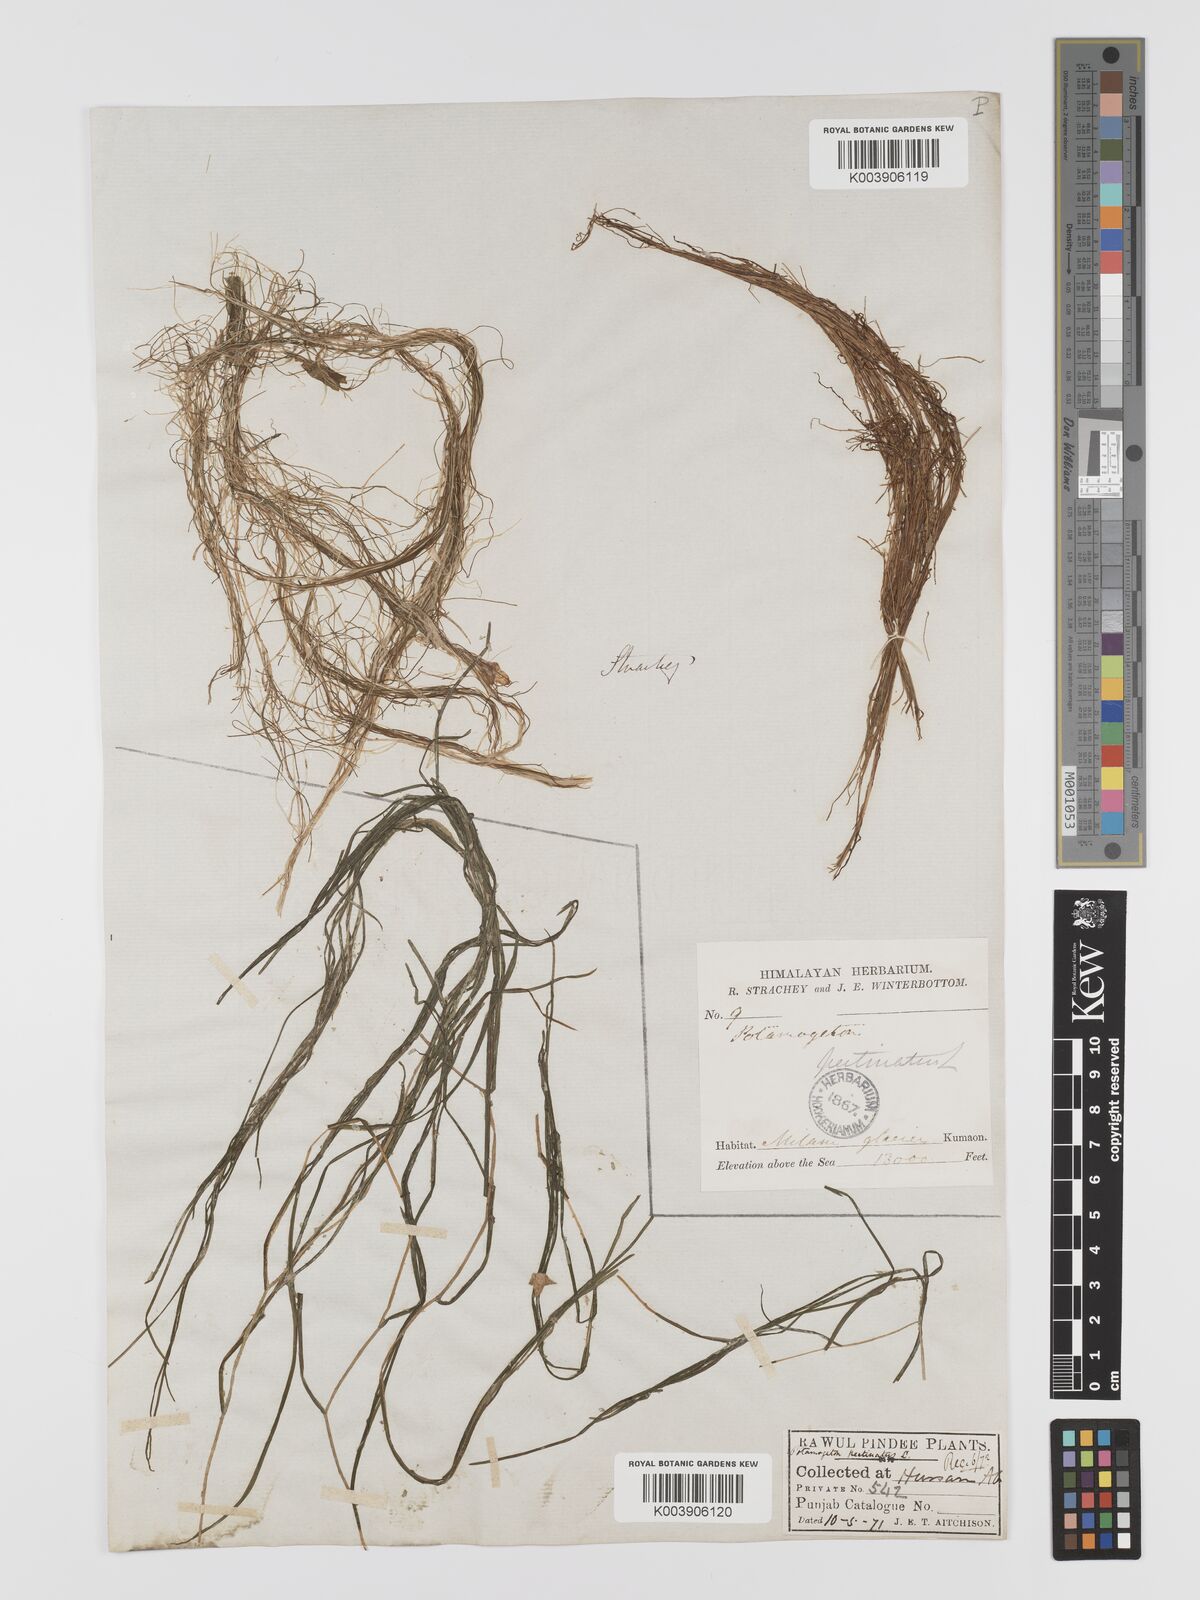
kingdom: Plantae
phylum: Tracheophyta
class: Liliopsida
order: Alismatales
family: Potamogetonaceae
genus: Stuckenia
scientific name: Stuckenia pectinata
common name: Sago pondweed
